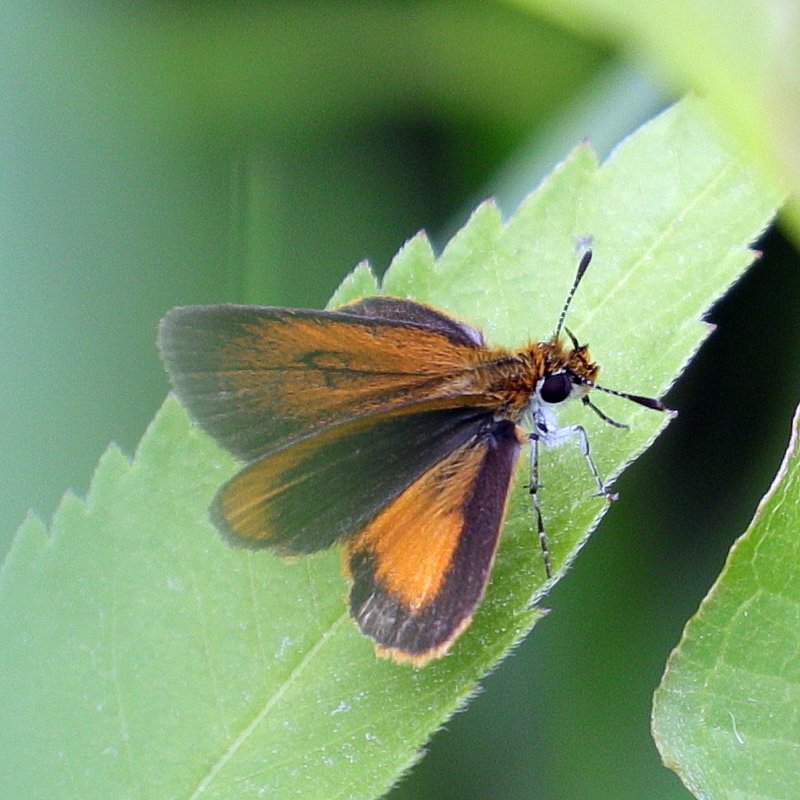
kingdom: Animalia
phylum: Arthropoda
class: Insecta
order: Lepidoptera
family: Hesperiidae
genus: Ancyloxypha
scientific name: Ancyloxypha numitor
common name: Least Skipper
